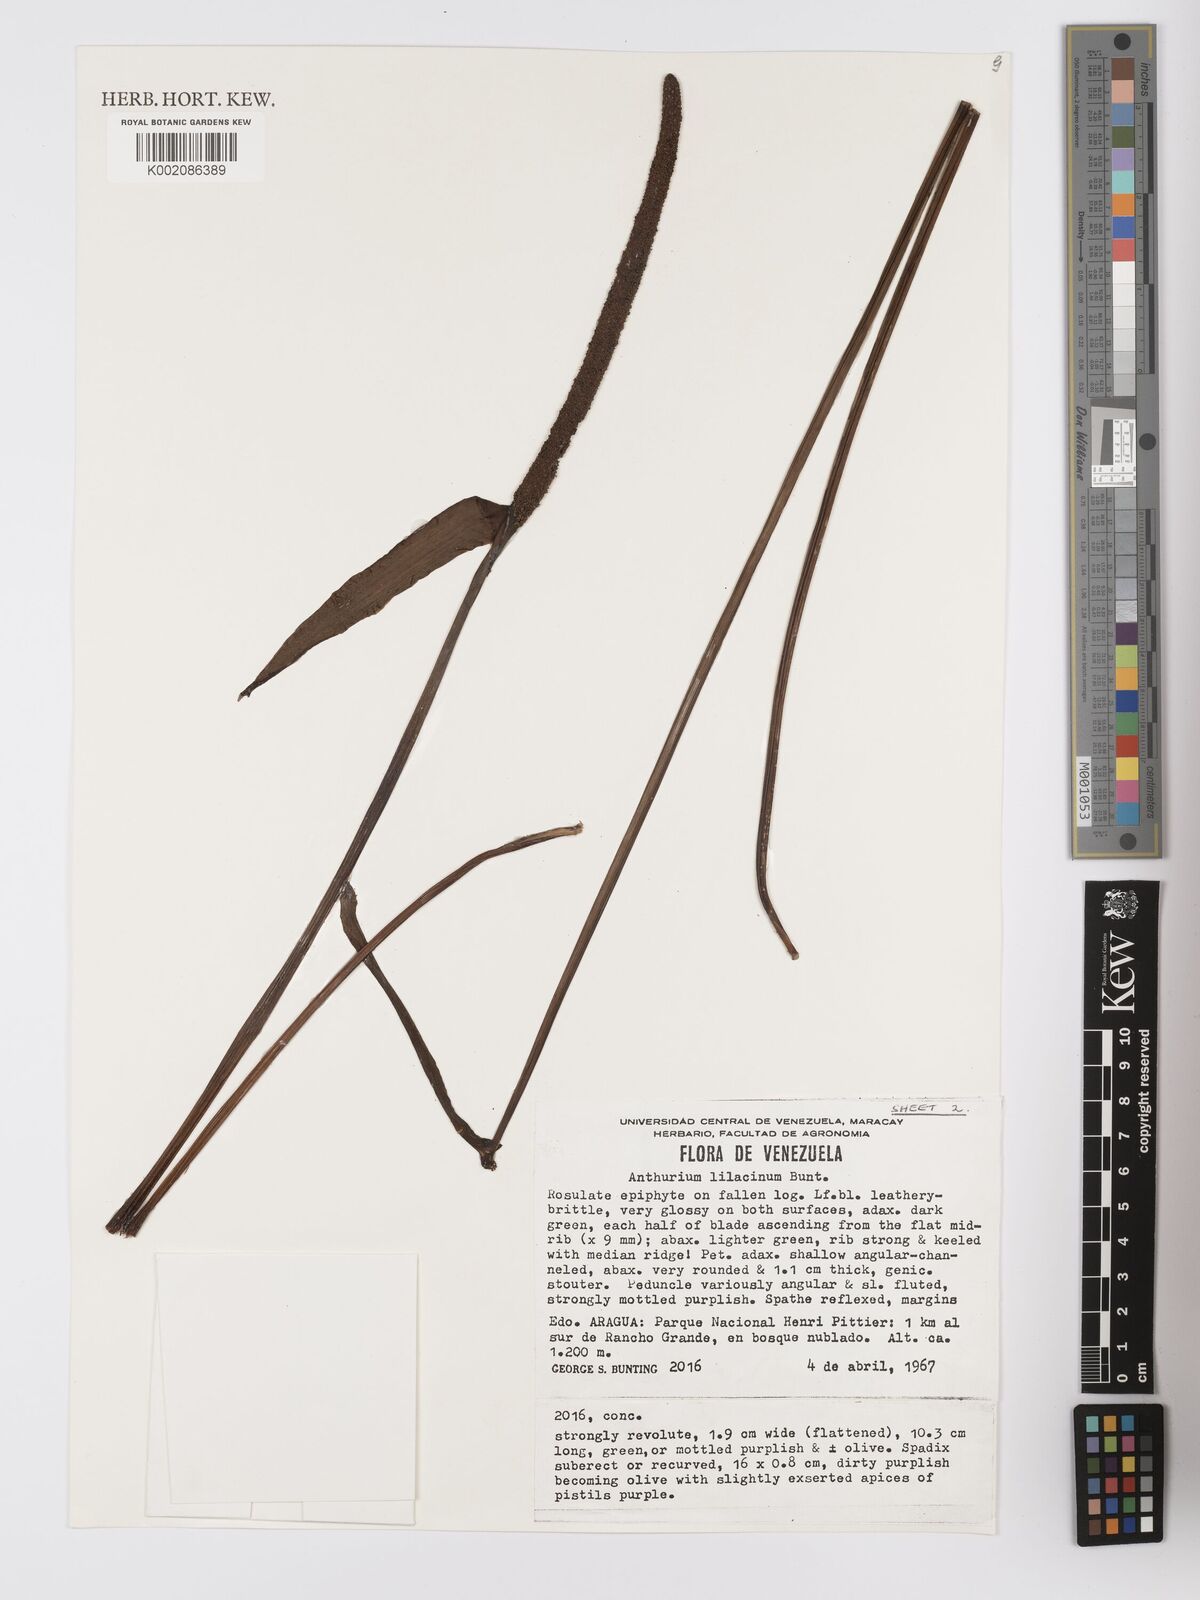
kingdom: Plantae
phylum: Tracheophyta
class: Liliopsida
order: Alismatales
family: Araceae
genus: Anthurium
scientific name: Anthurium lilacinum
